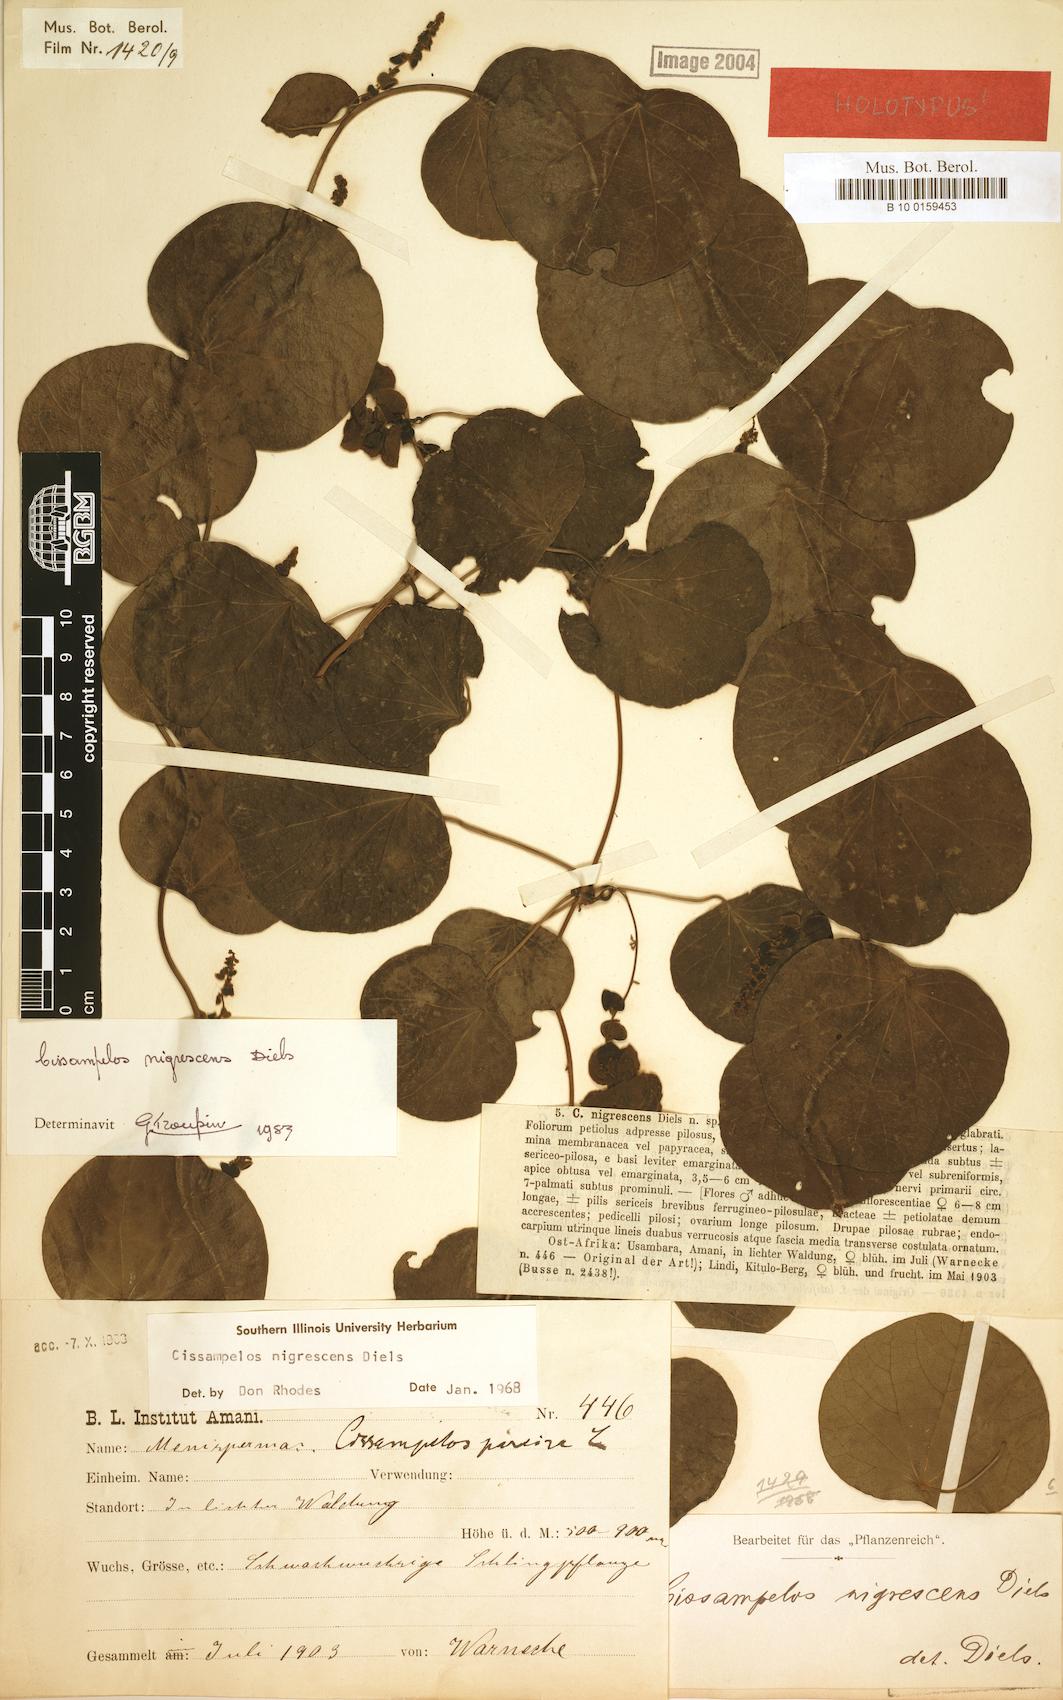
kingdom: Plantae
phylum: Tracheophyta
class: Magnoliopsida
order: Ranunculales
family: Menispermaceae
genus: Cissampelos
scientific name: Cissampelos nigrescens
